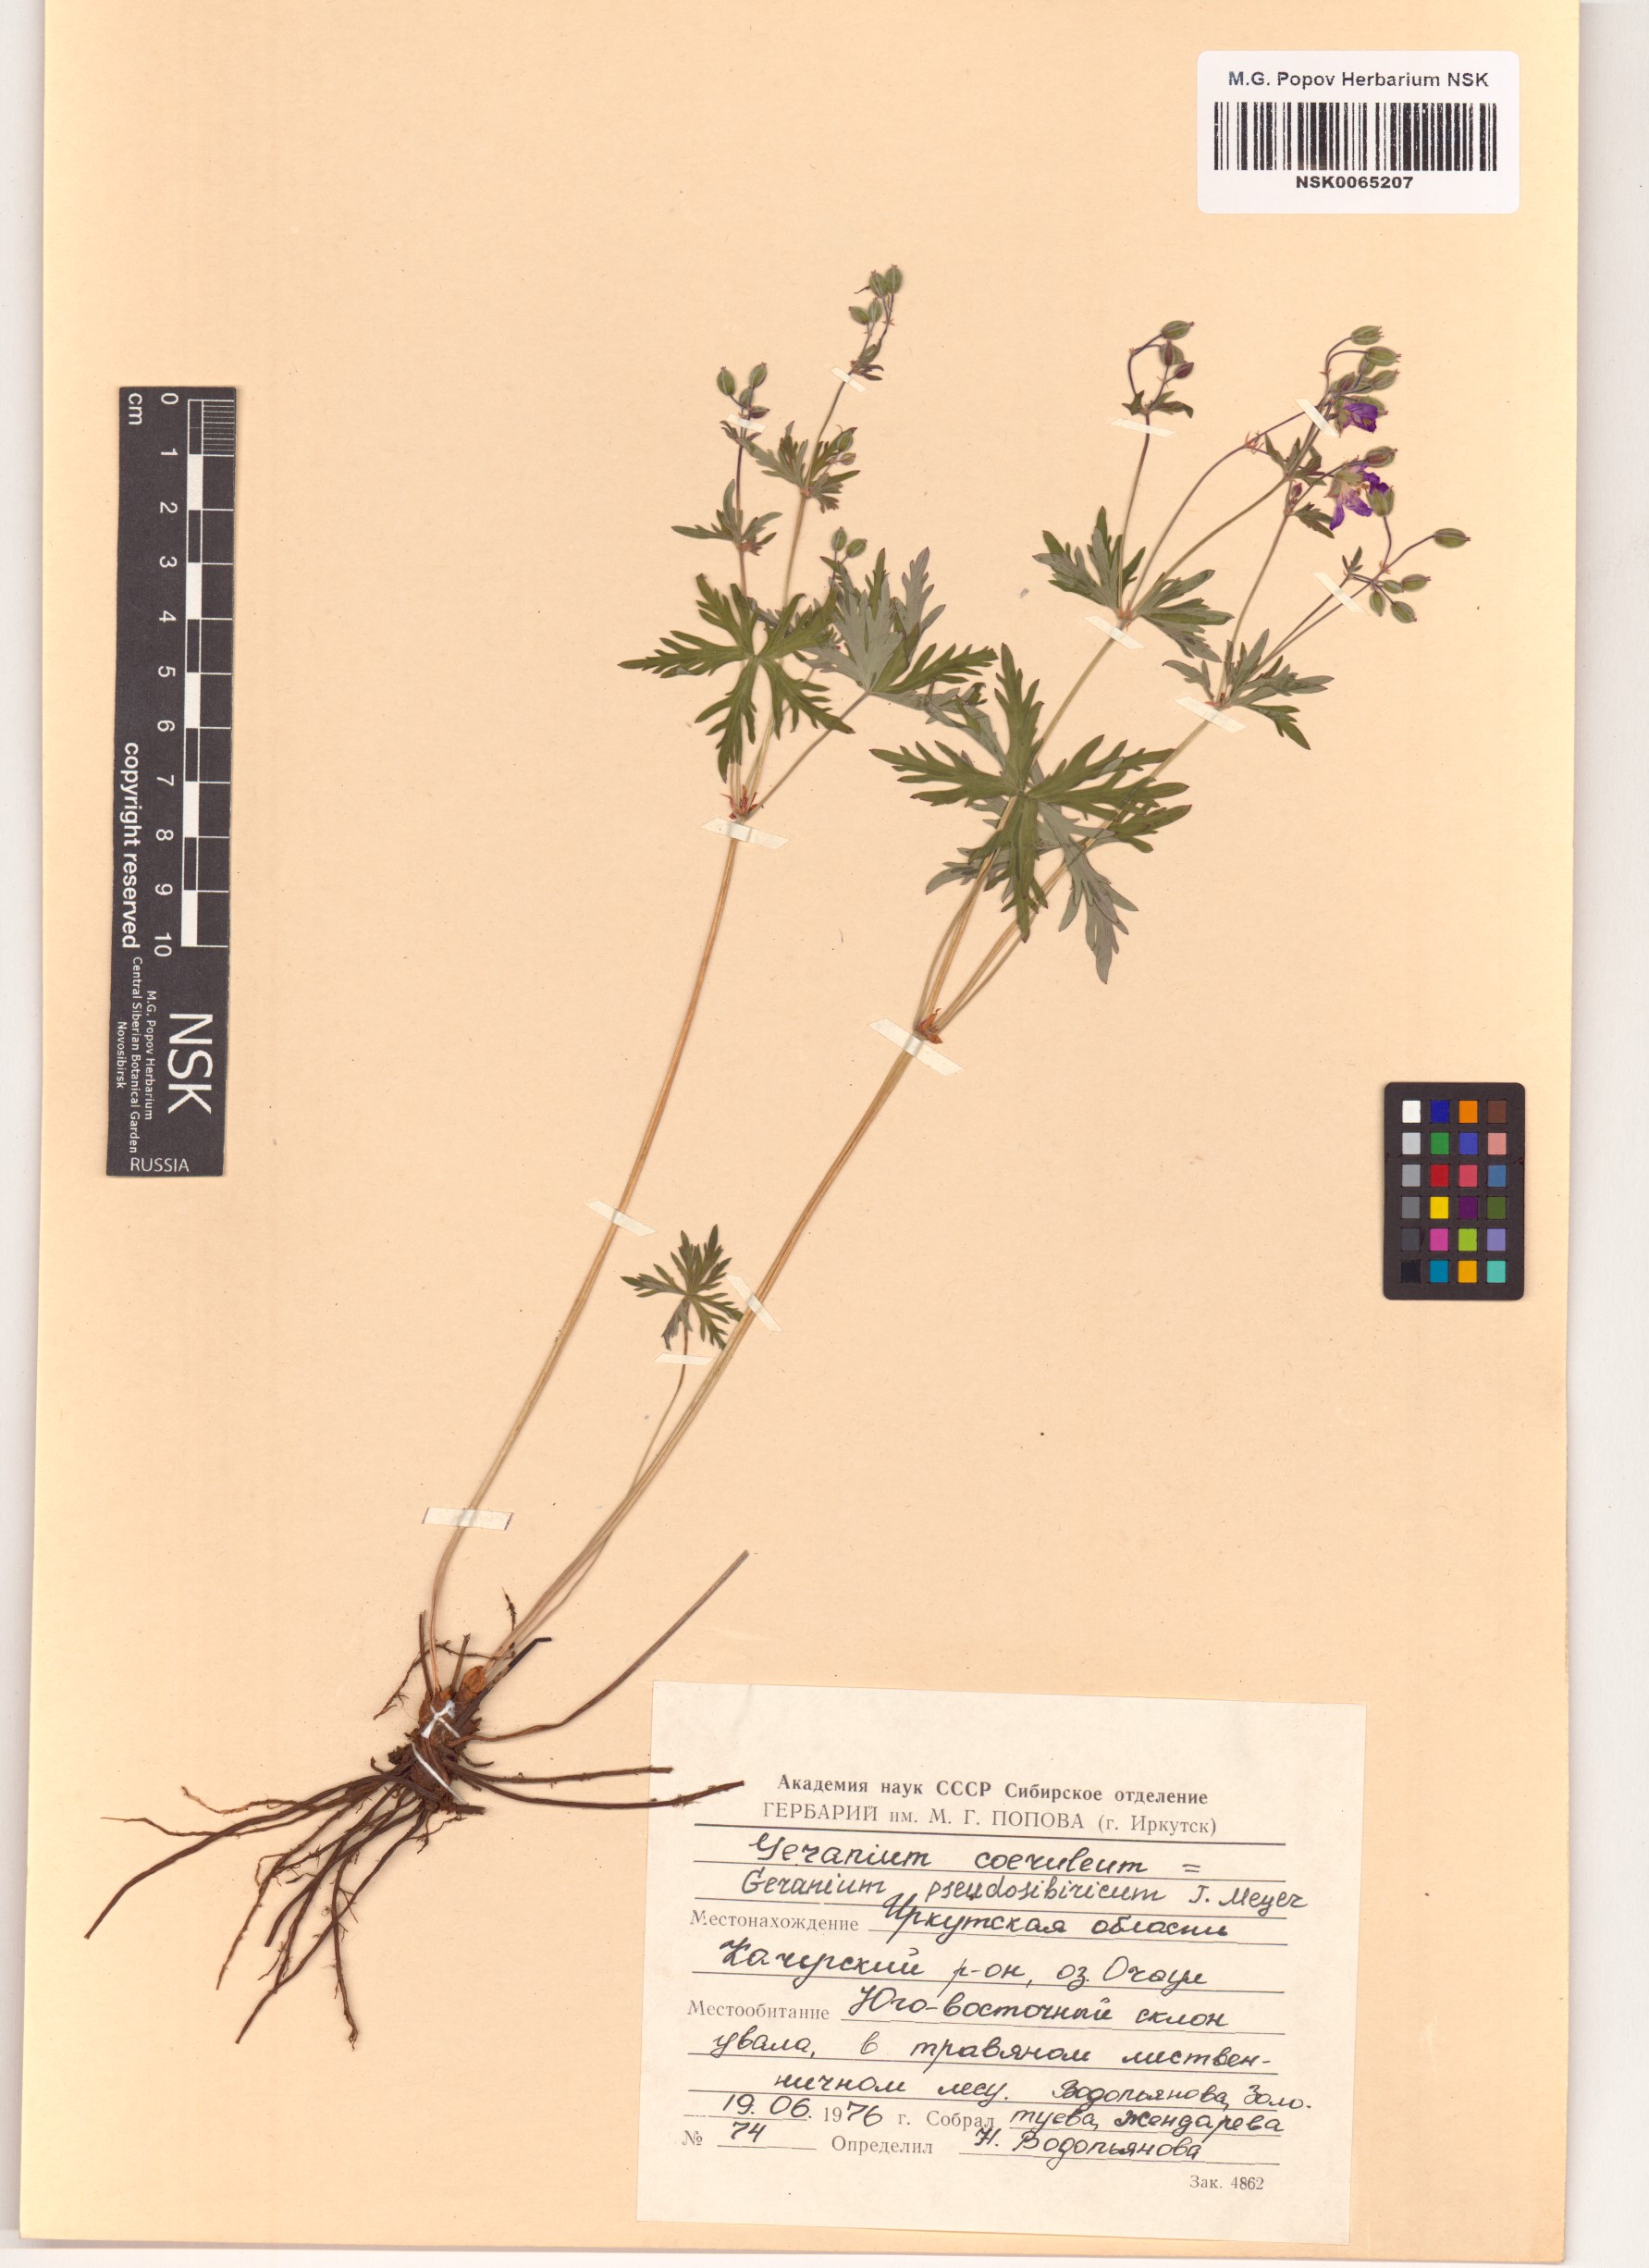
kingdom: Plantae
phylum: Tracheophyta
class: Magnoliopsida
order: Geraniales
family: Geraniaceae
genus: Geranium
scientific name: Geranium pseudosibiricum
